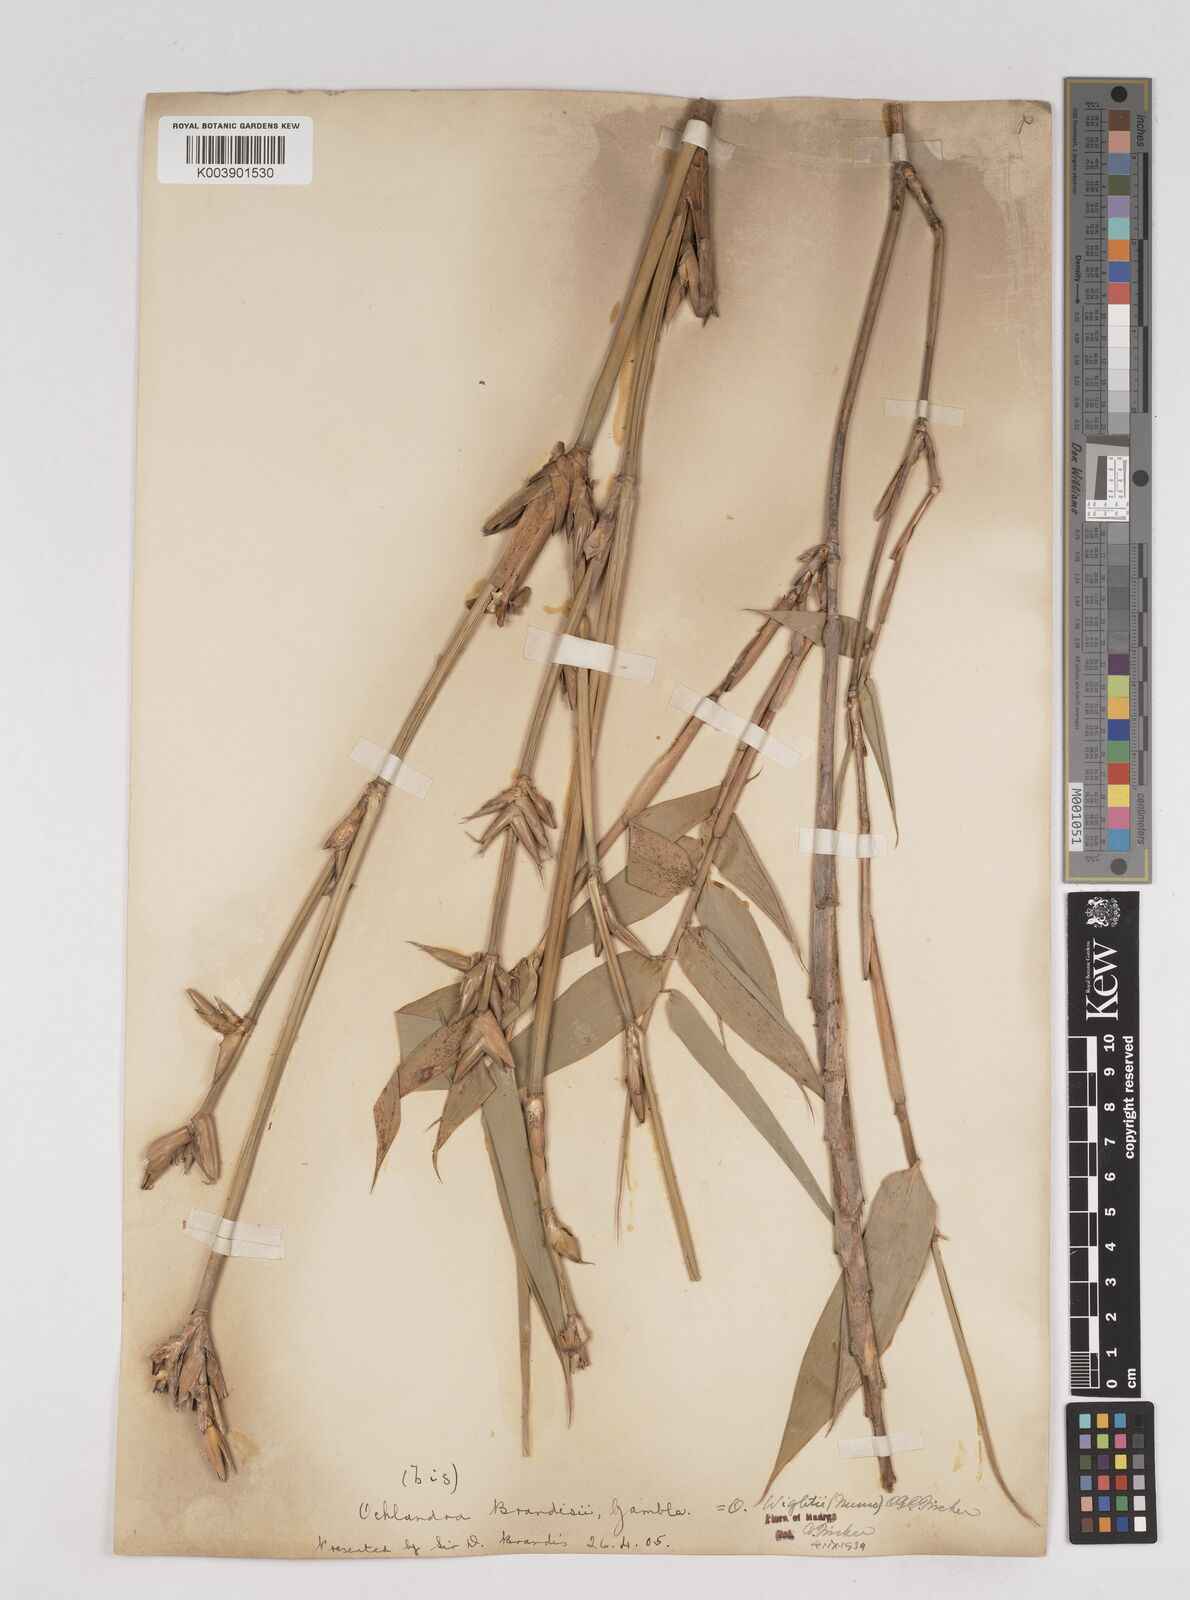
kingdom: Plantae
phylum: Tracheophyta
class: Liliopsida
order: Poales
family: Poaceae
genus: Ochlandra
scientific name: Ochlandra wightii
